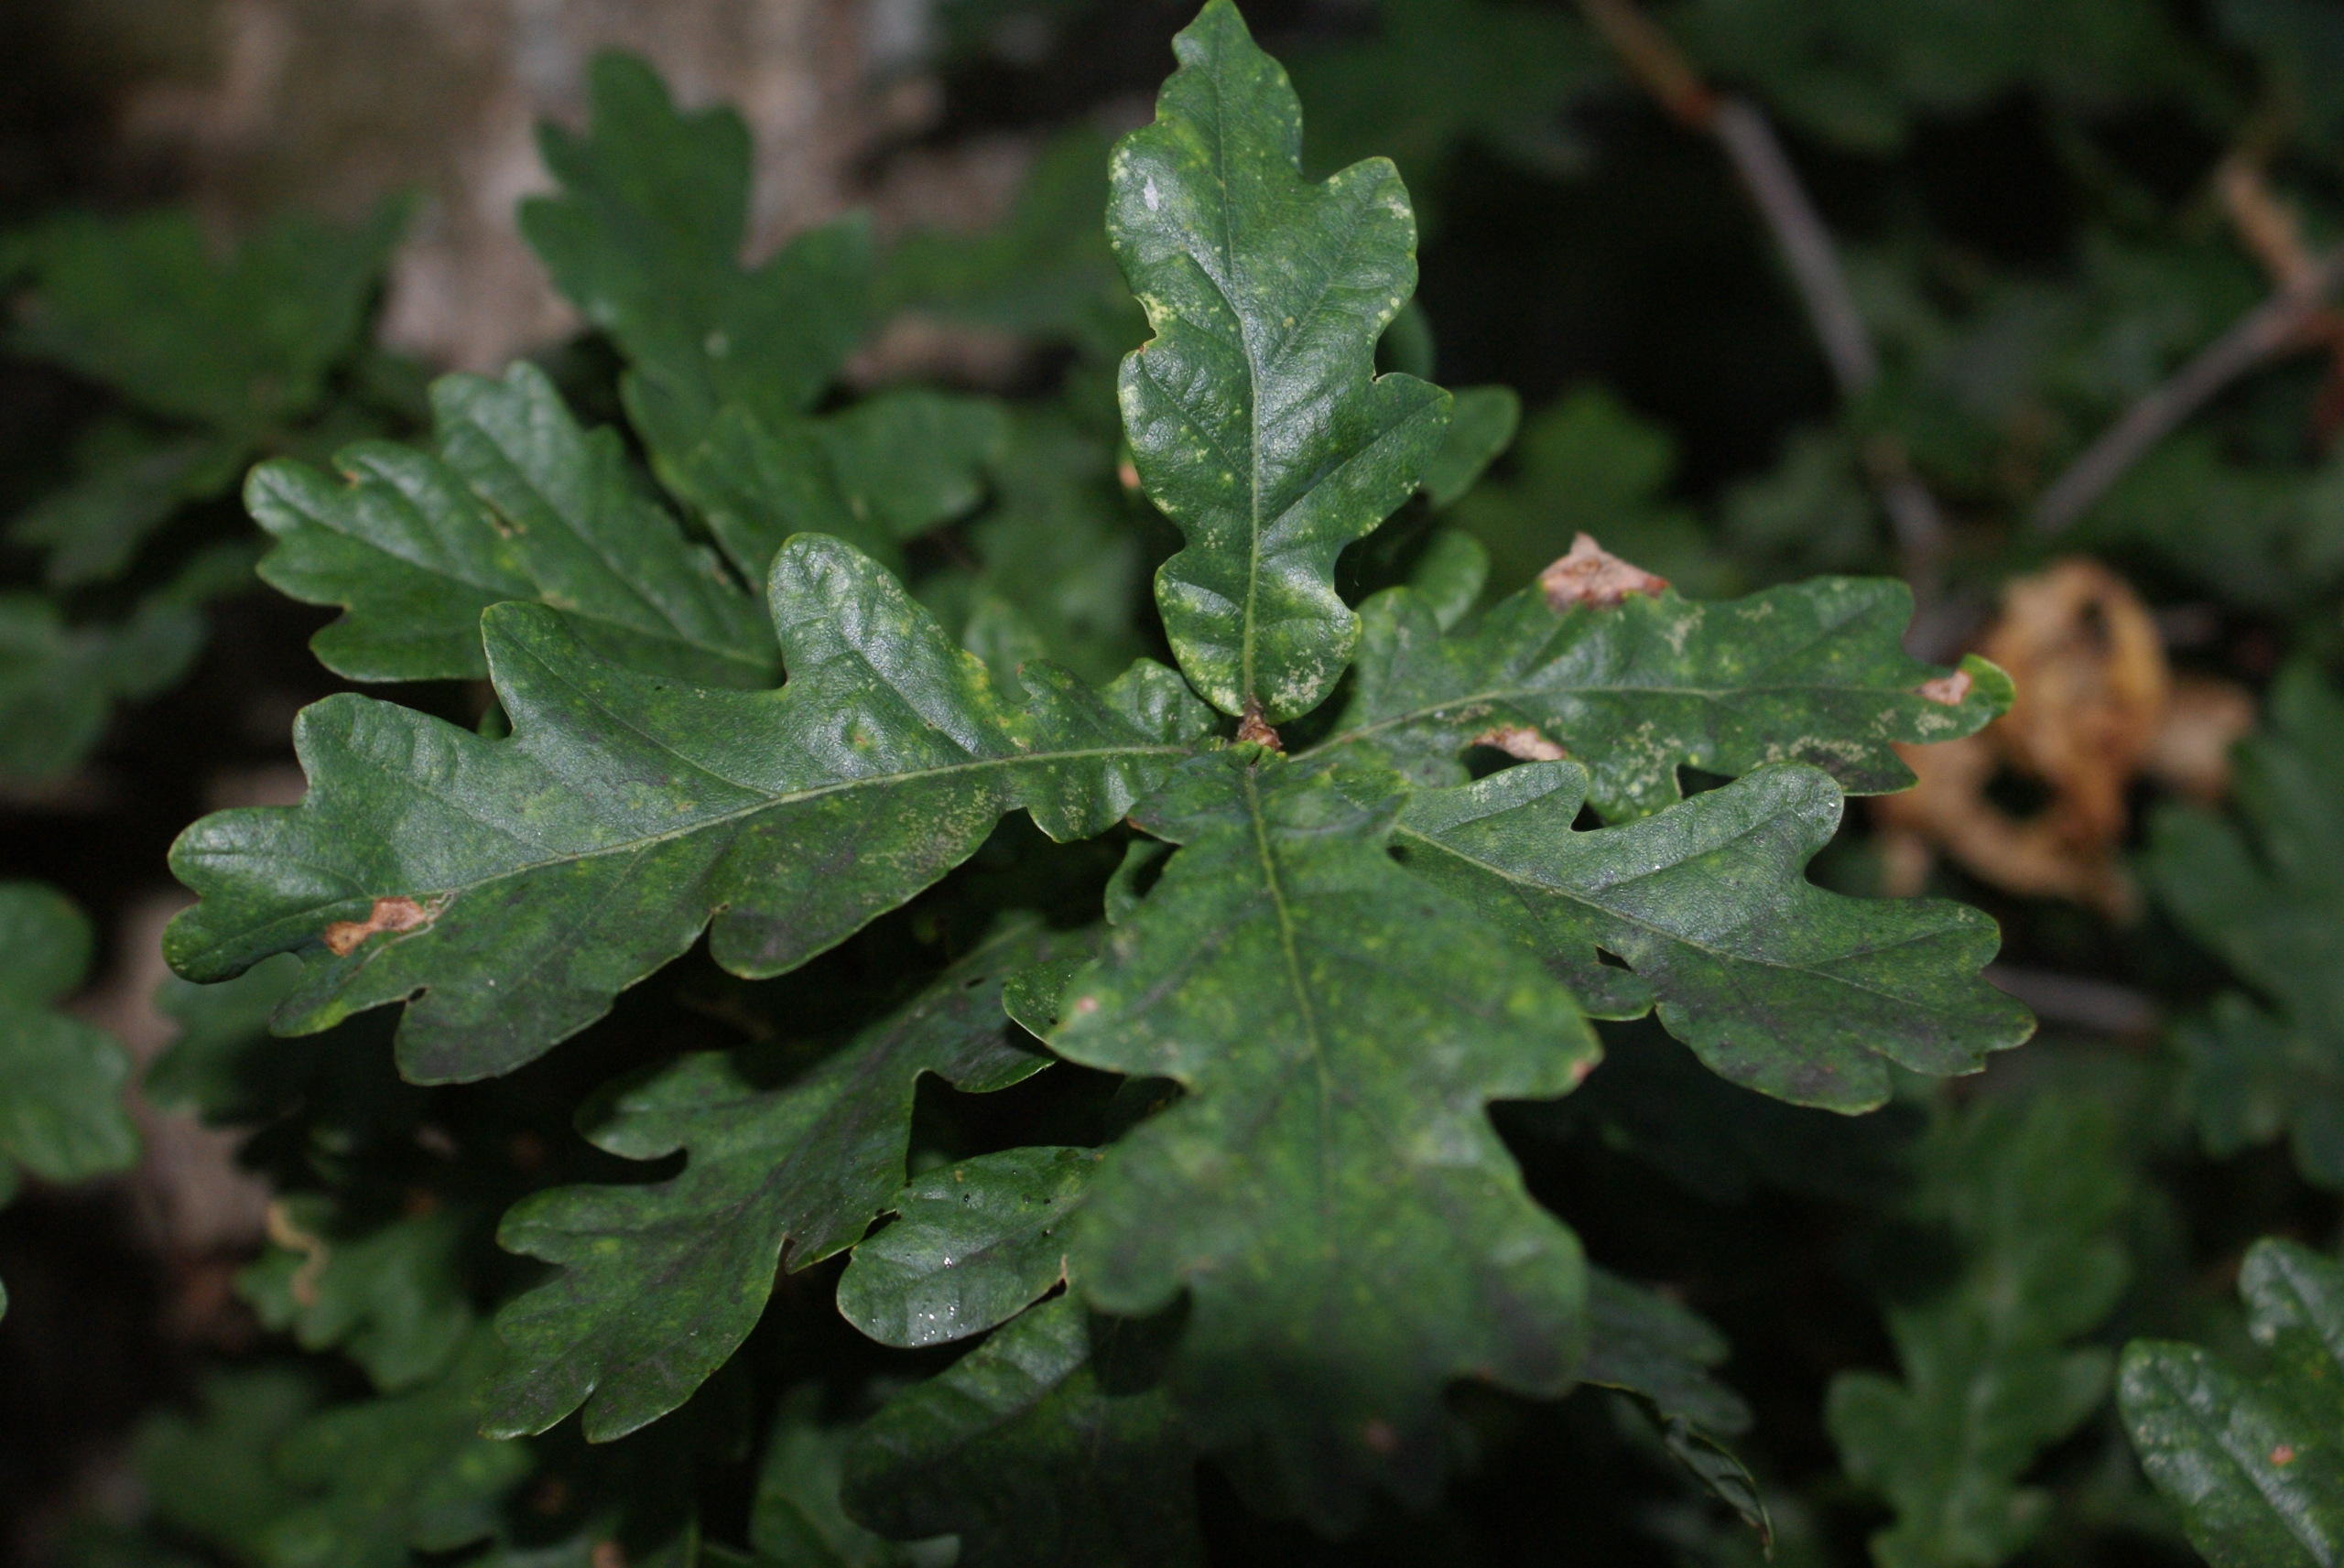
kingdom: Plantae
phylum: Tracheophyta
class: Magnoliopsida
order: Fagales
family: Fagaceae
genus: Quercus
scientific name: Quercus robur
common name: Stilk-eg/almindelig eg
